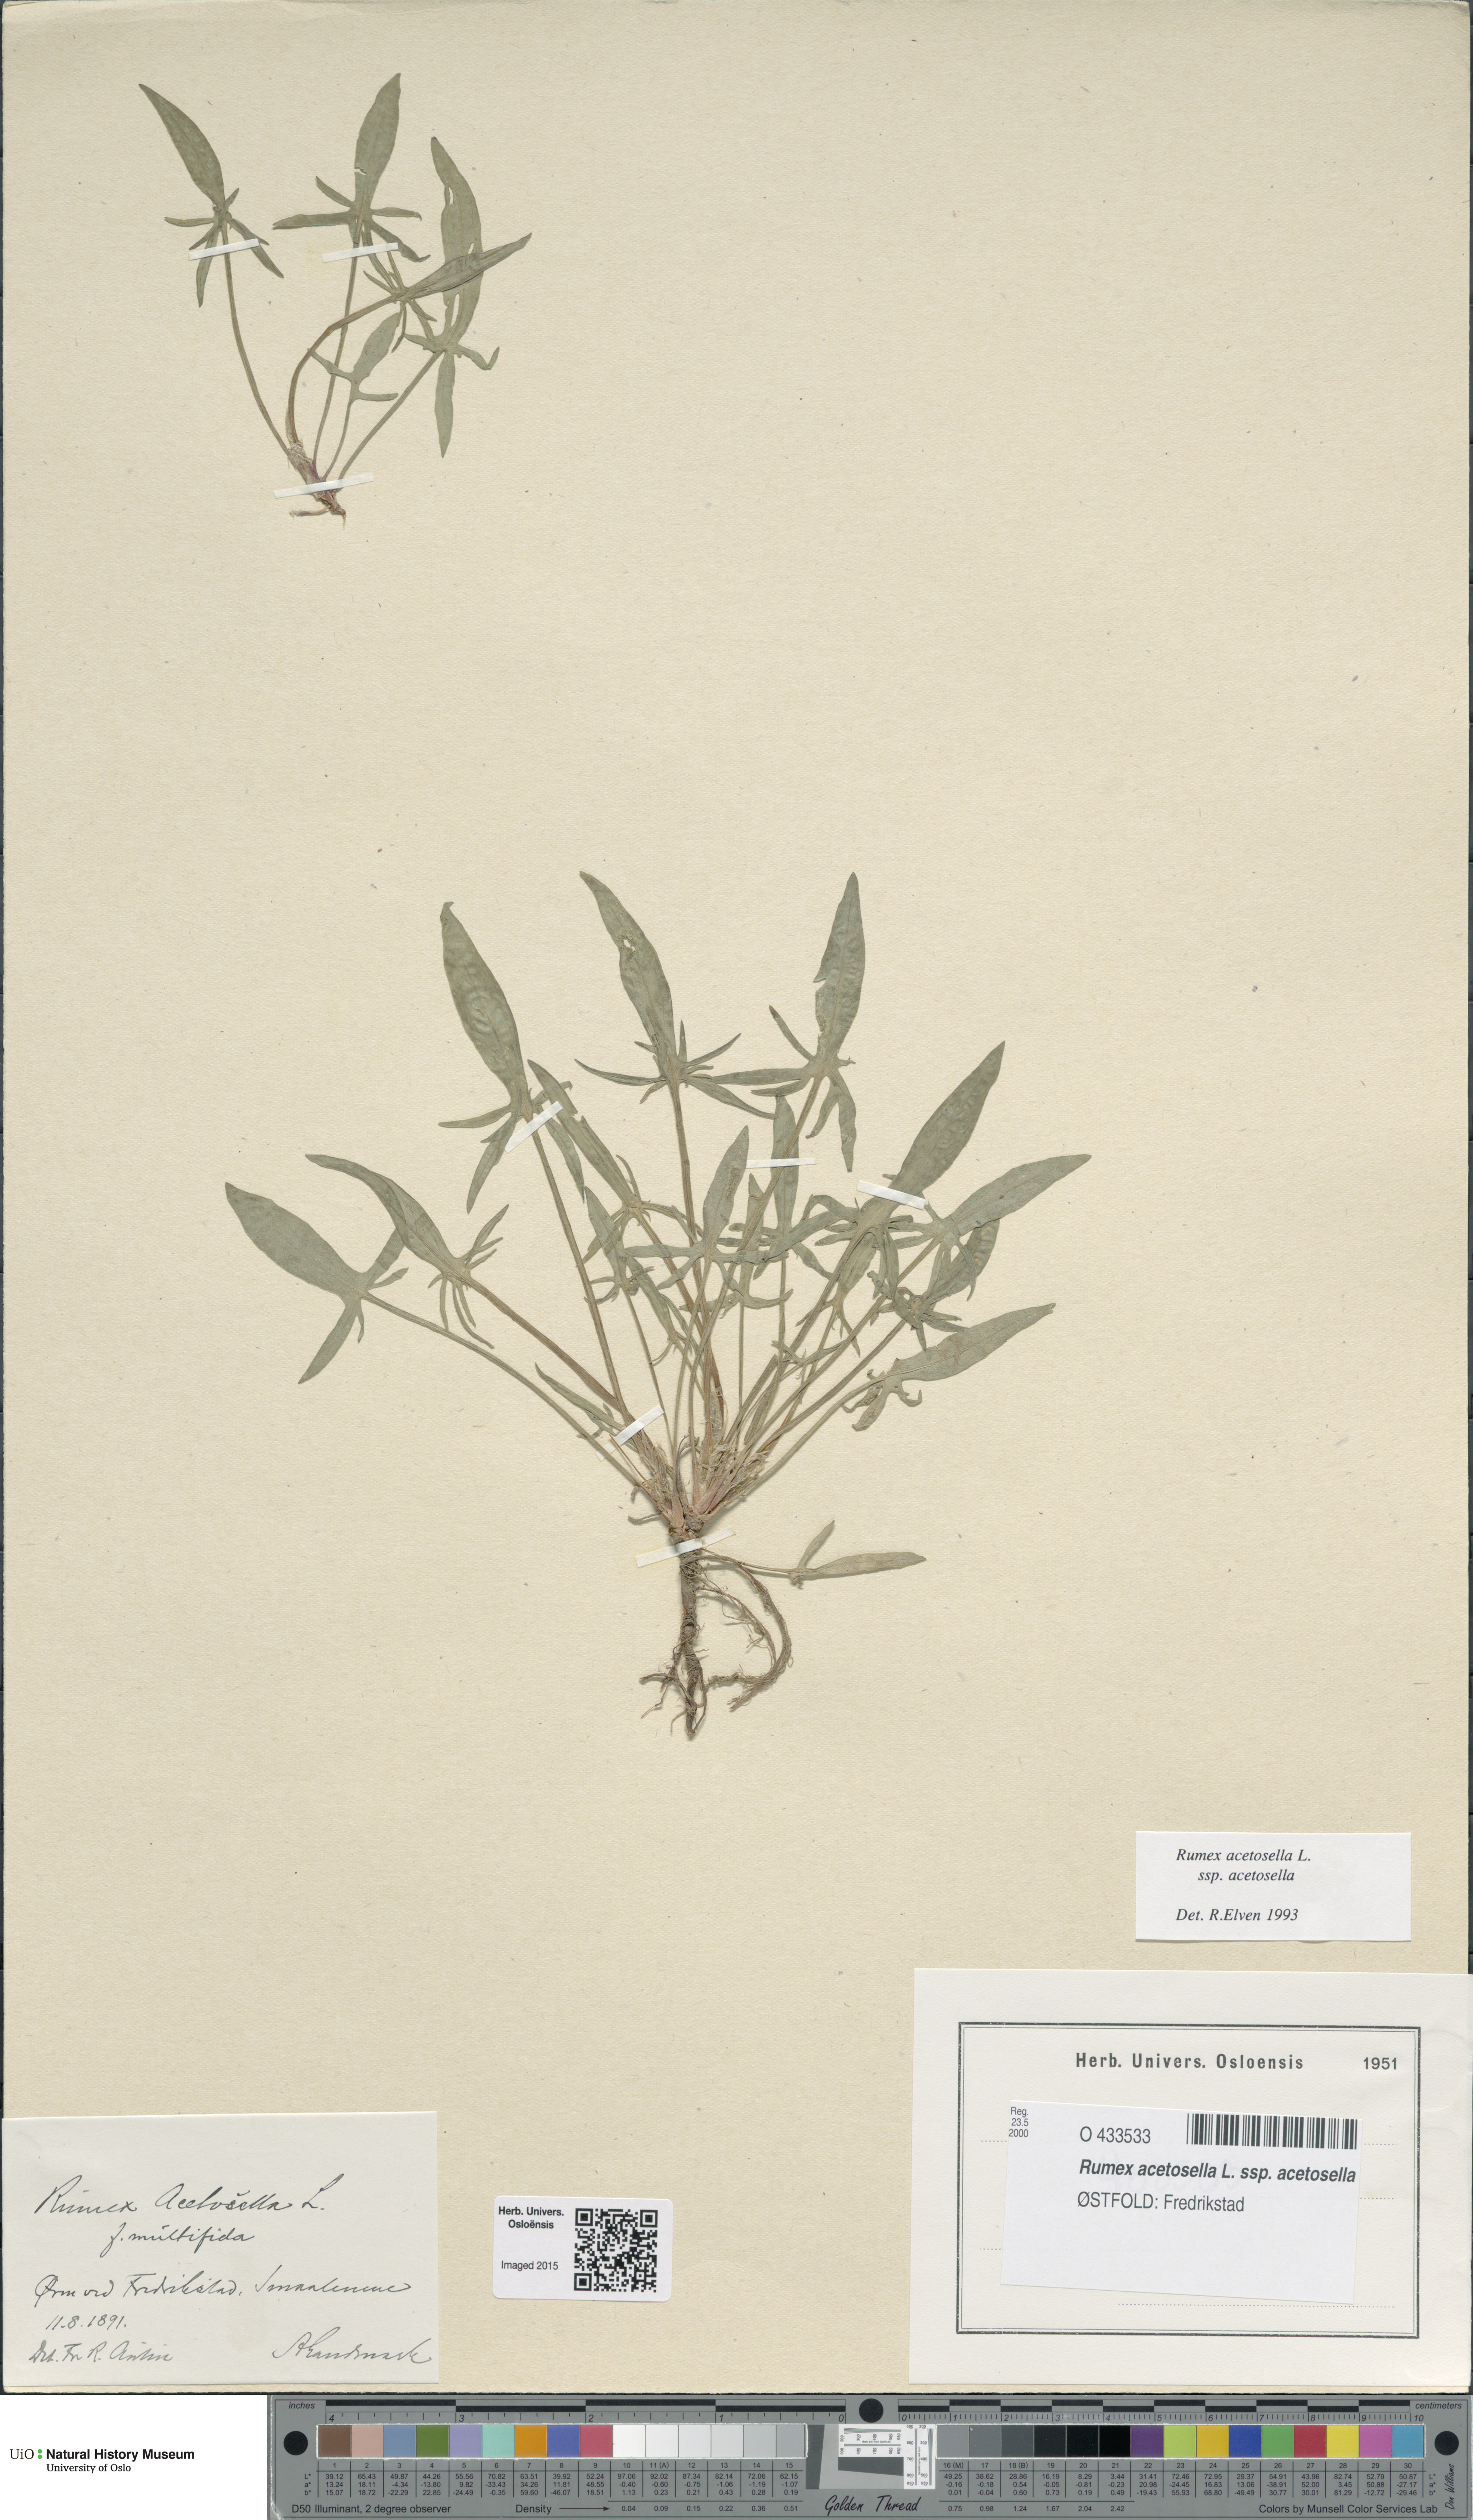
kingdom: Plantae
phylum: Tracheophyta
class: Magnoliopsida
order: Caryophyllales
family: Polygonaceae
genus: Rumex
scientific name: Rumex acetosella
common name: Common sheep sorrel
